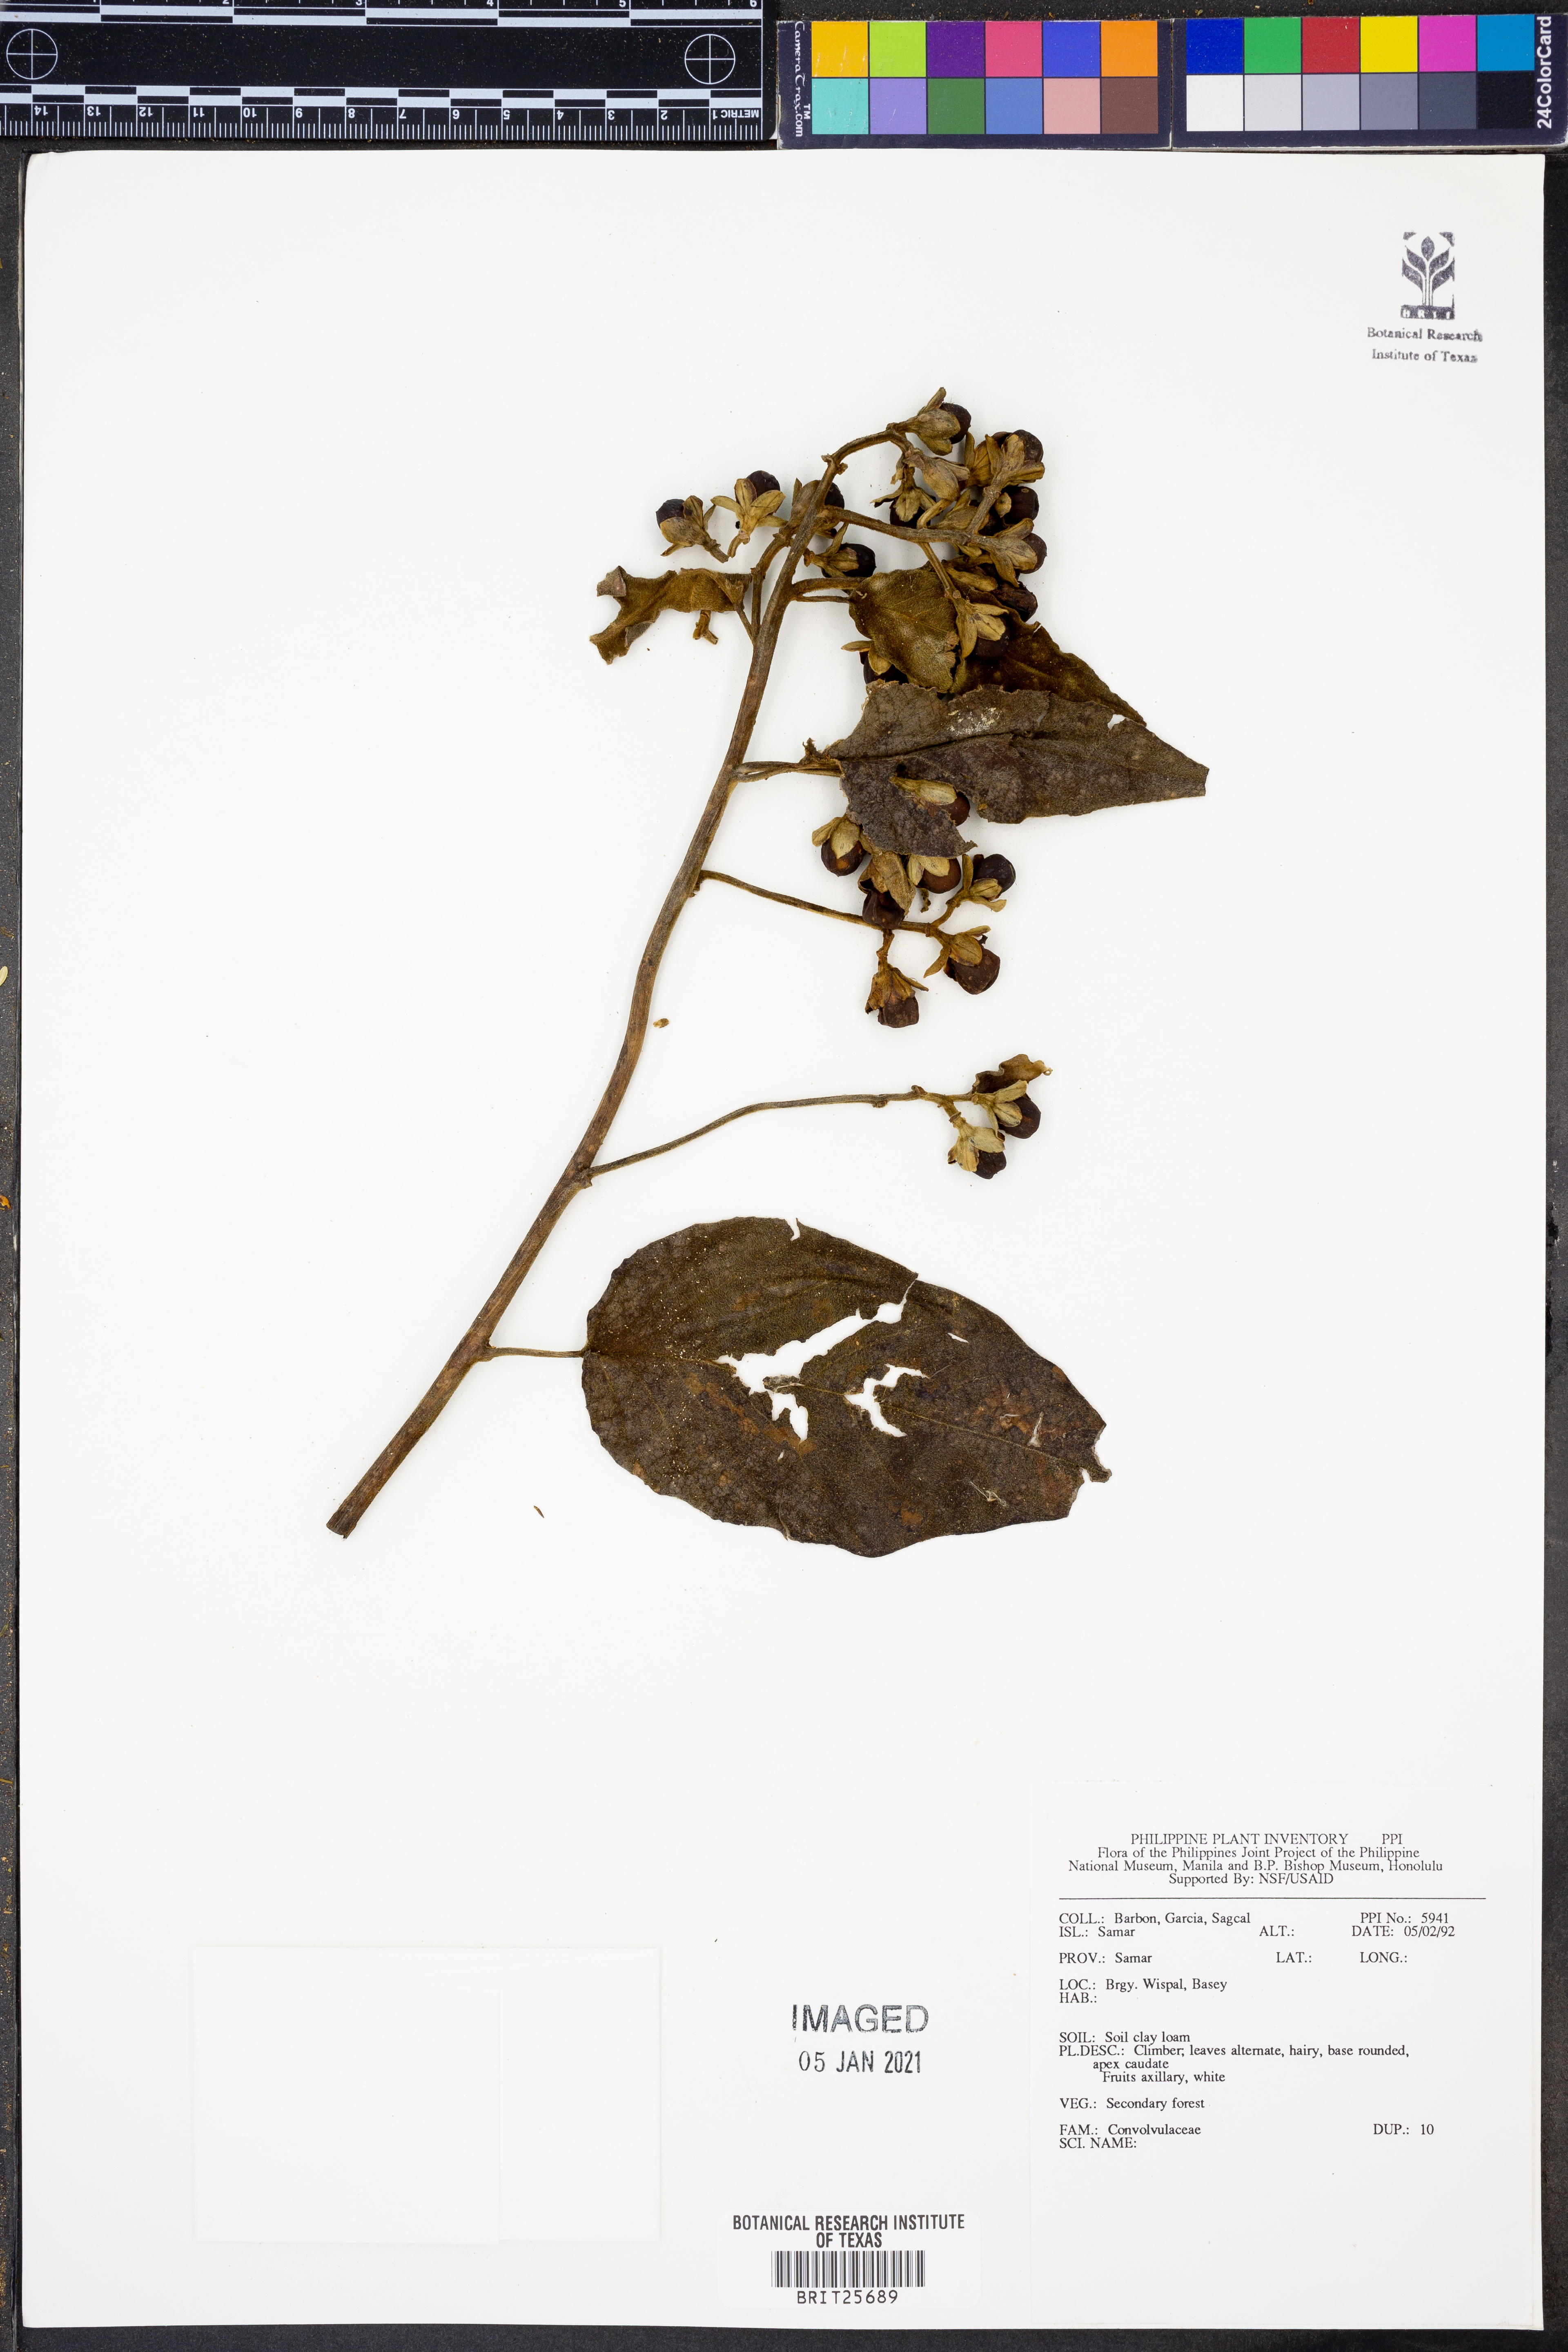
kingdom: Plantae
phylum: Tracheophyta
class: Magnoliopsida
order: Solanales
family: Convolvulaceae
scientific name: Convolvulaceae
